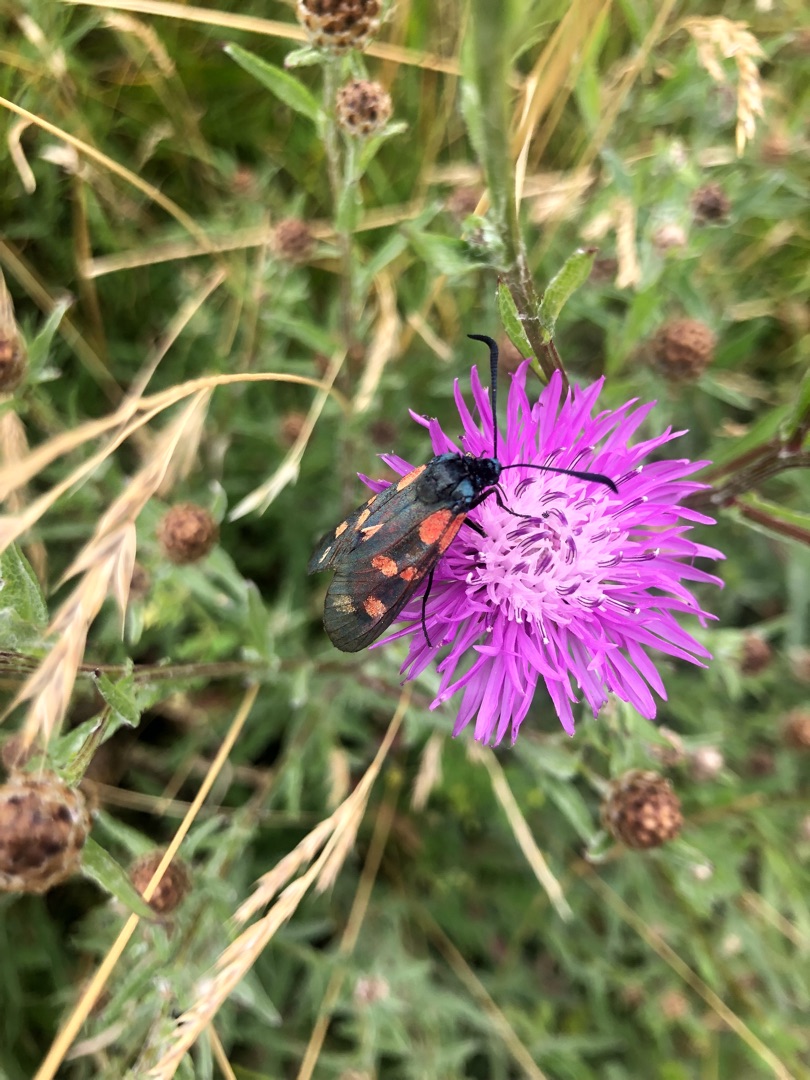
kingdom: Animalia
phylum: Arthropoda
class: Insecta
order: Lepidoptera
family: Zygaenidae
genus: Zygaena
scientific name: Zygaena filipendulae
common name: Seksplettet køllesværmer
